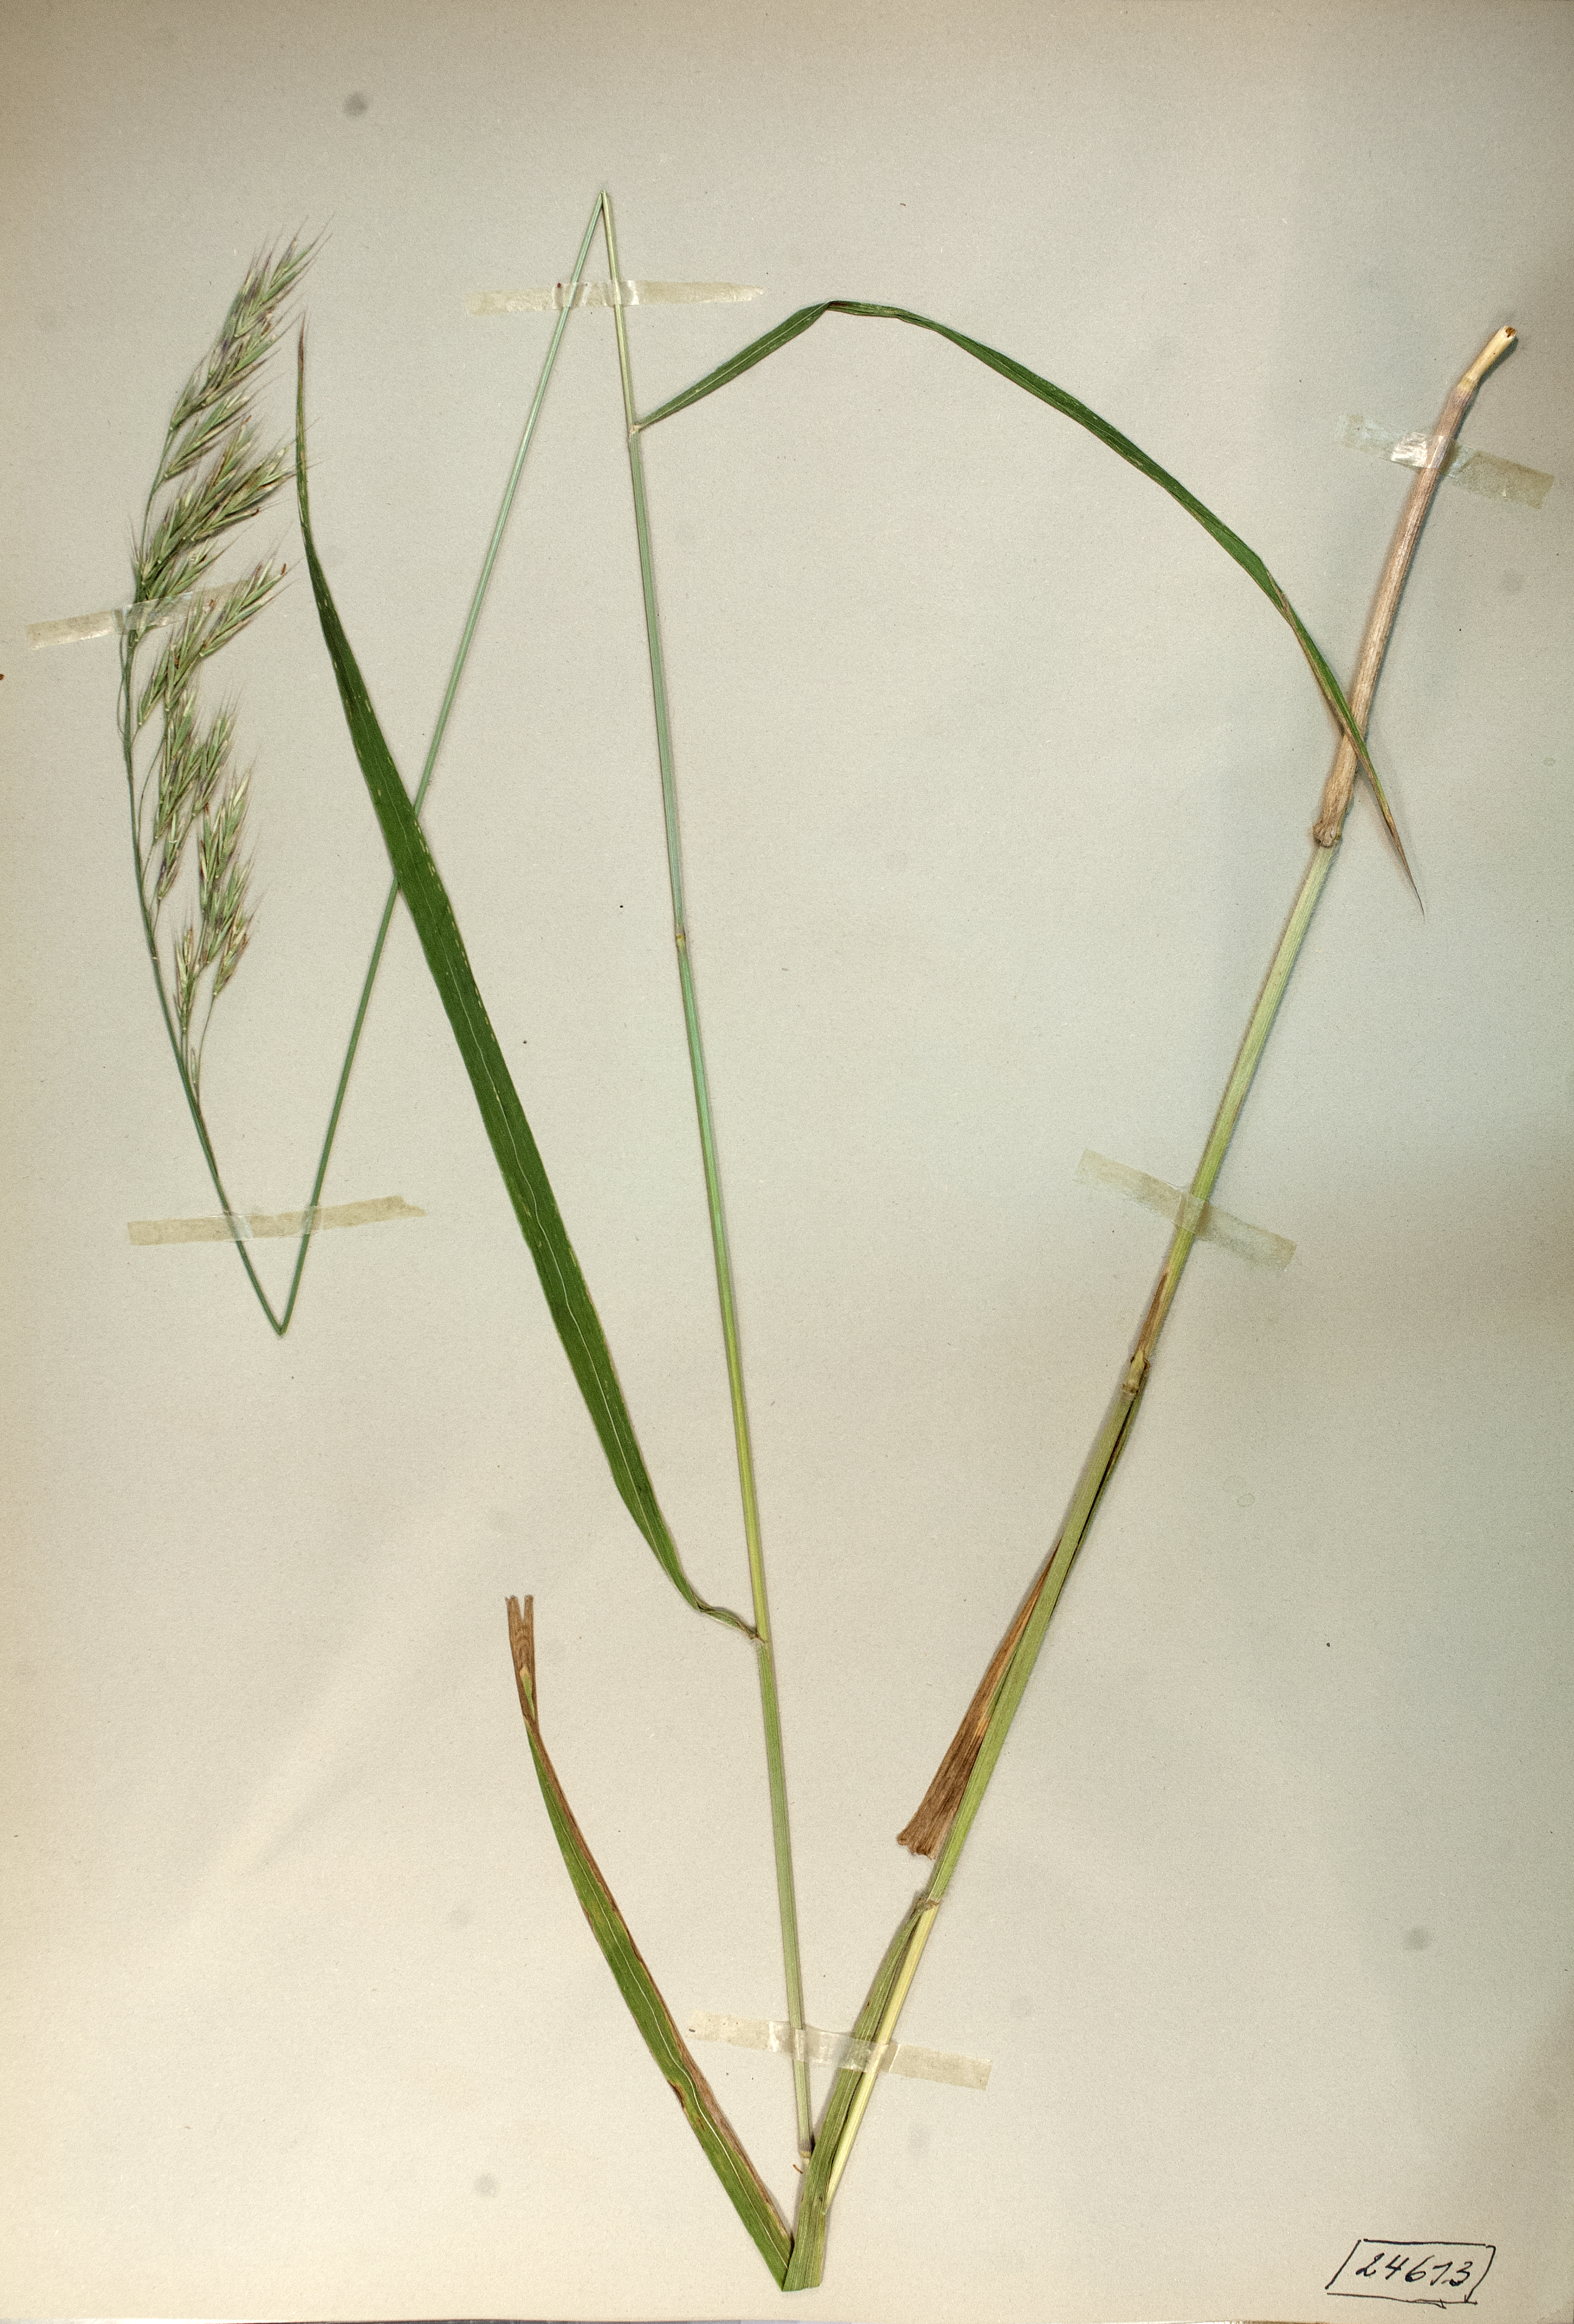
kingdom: Plantae
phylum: Tracheophyta
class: Liliopsida
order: Poales
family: Poaceae
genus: Bromus
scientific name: Bromus benekenii
